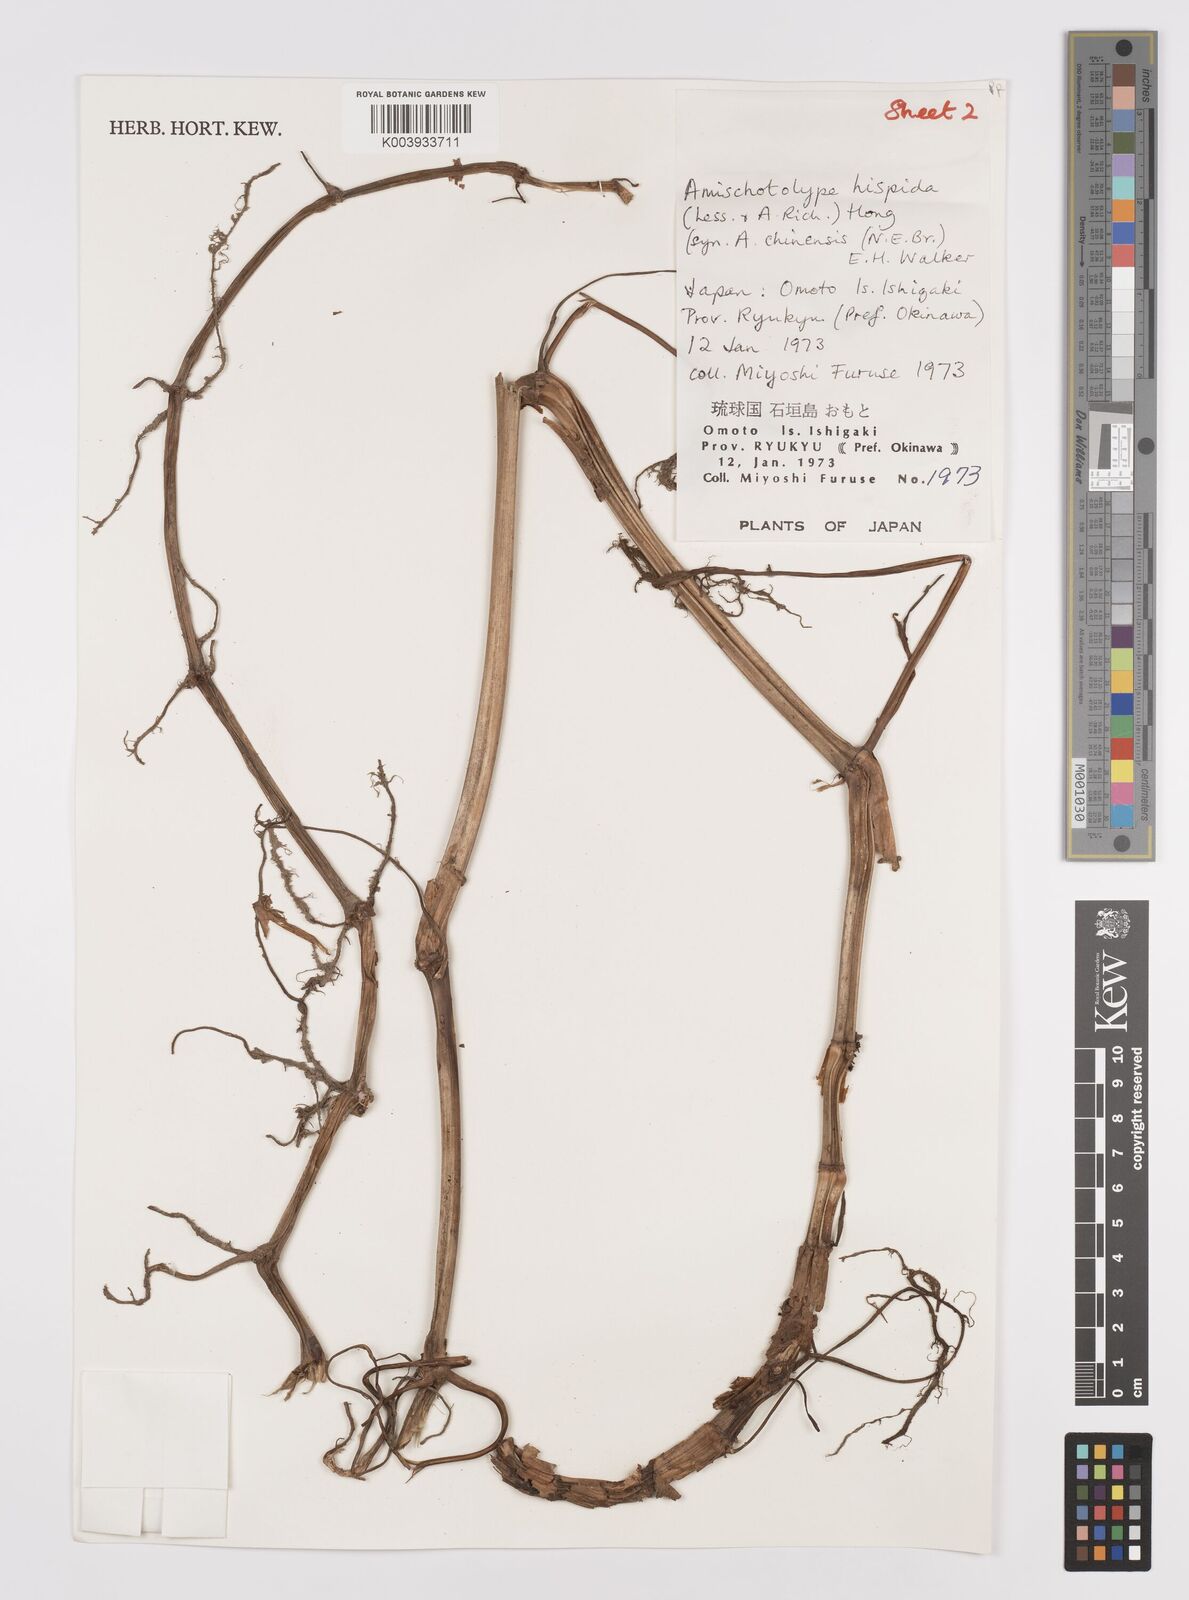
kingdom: Plantae
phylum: Tracheophyta
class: Liliopsida
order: Commelinales
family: Commelinaceae
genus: Amischotolype
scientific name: Amischotolype hispida
